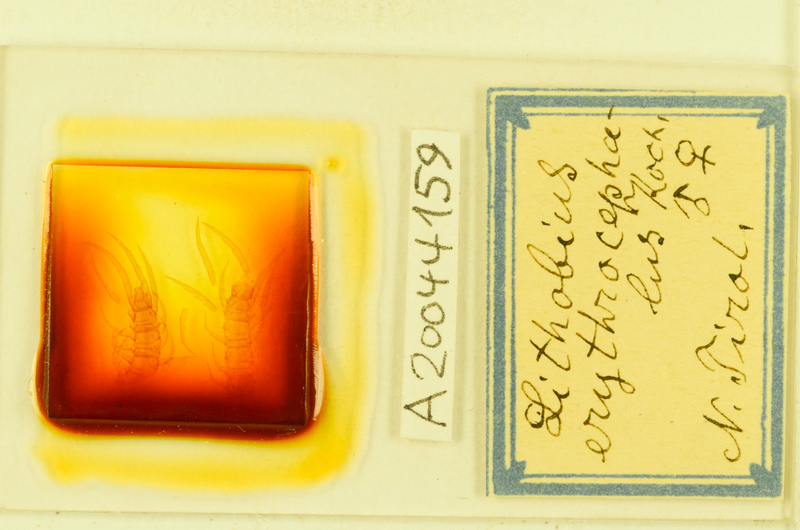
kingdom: Animalia
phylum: Arthropoda
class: Chilopoda
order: Lithobiomorpha
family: Lithobiidae
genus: Lithobius
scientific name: Lithobius erythrocephalus
